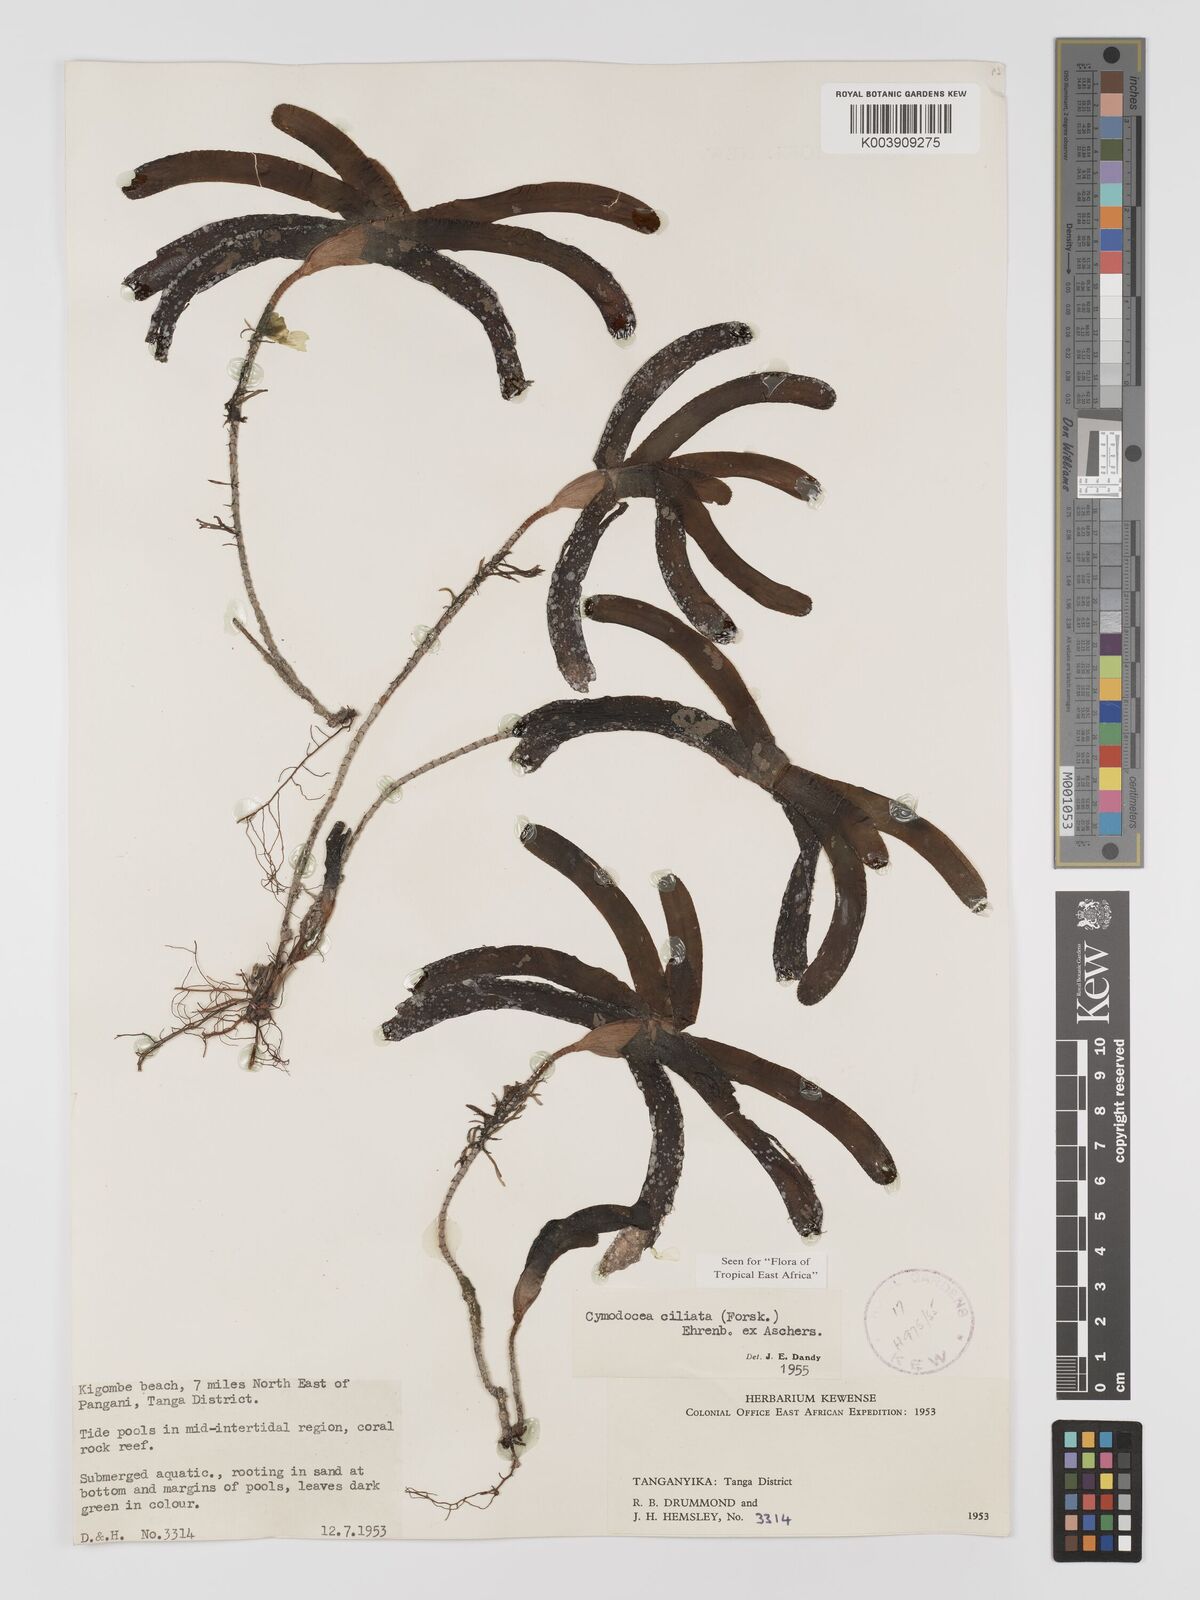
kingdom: Plantae
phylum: Tracheophyta
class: Liliopsida
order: Alismatales
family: Cymodoceaceae
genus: Thalassodendron
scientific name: Thalassodendron ciliatum
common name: Species code: tc
